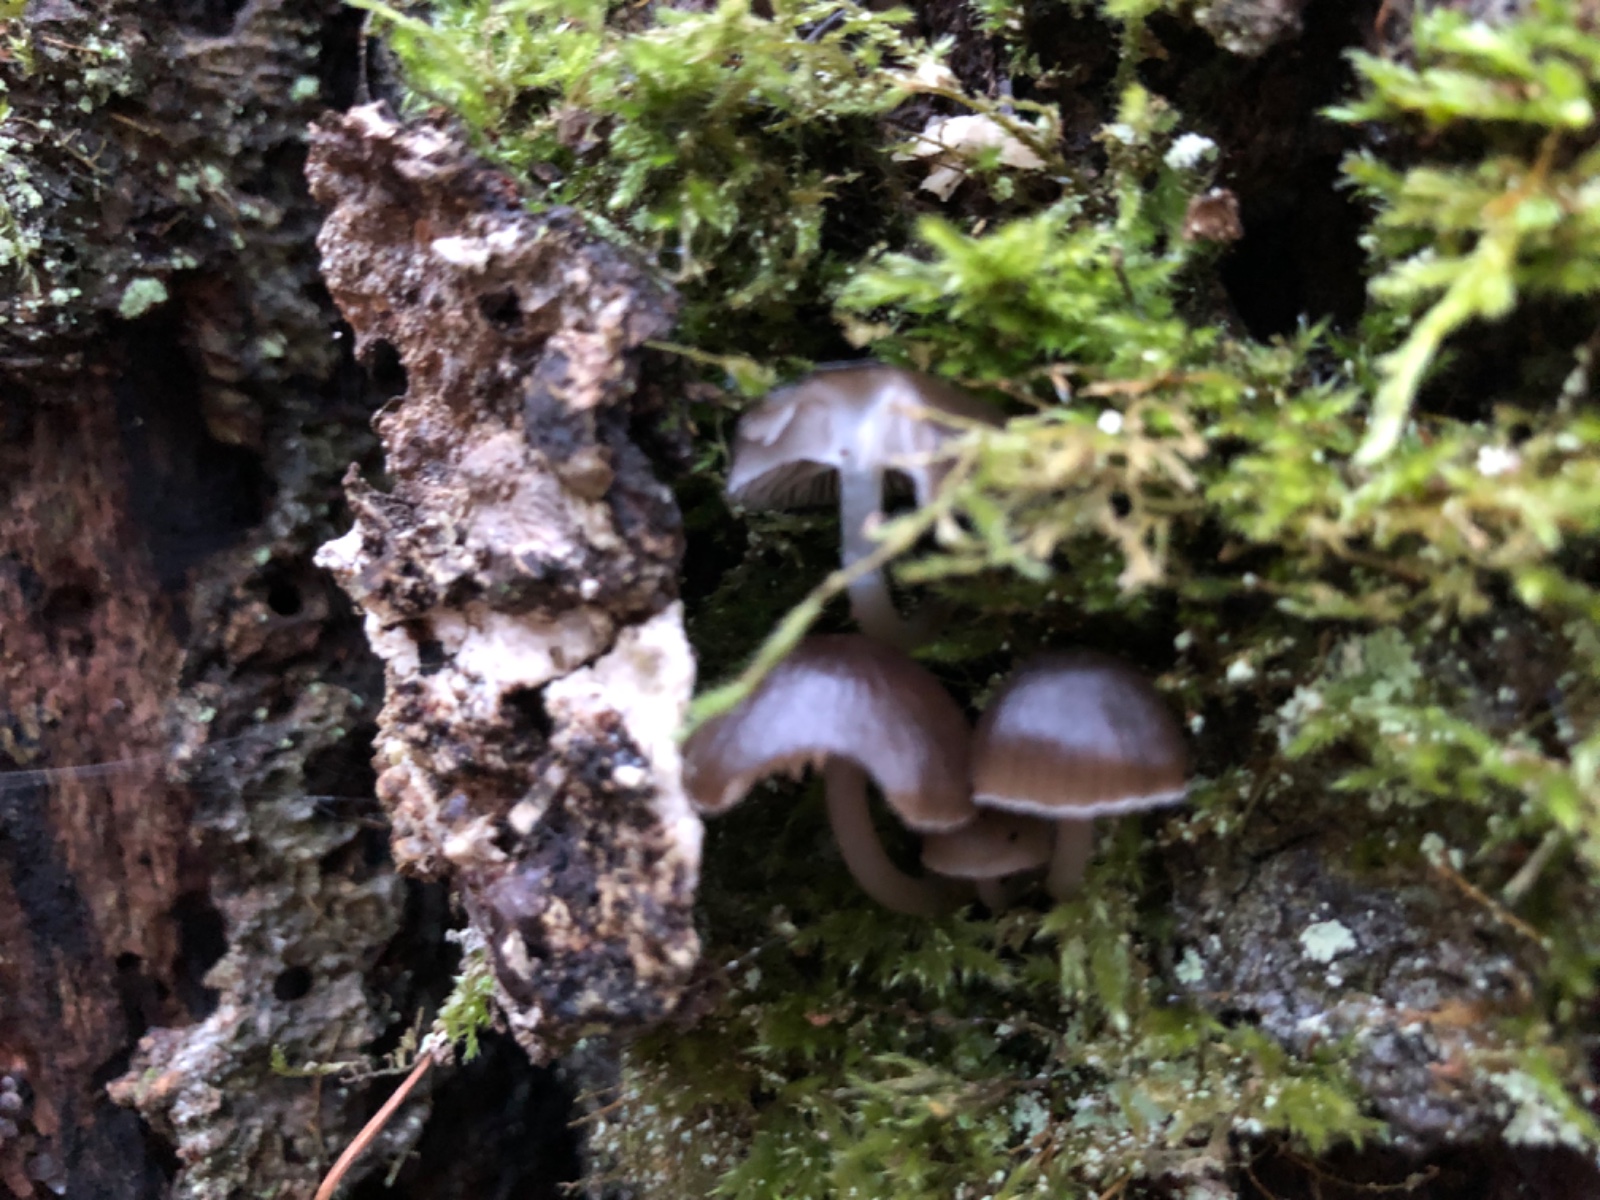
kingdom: Fungi
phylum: Basidiomycota
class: Agaricomycetes
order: Agaricales
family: Mycenaceae
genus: Mycena
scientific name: Mycena tintinnabulum
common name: vinter-huesvamp
